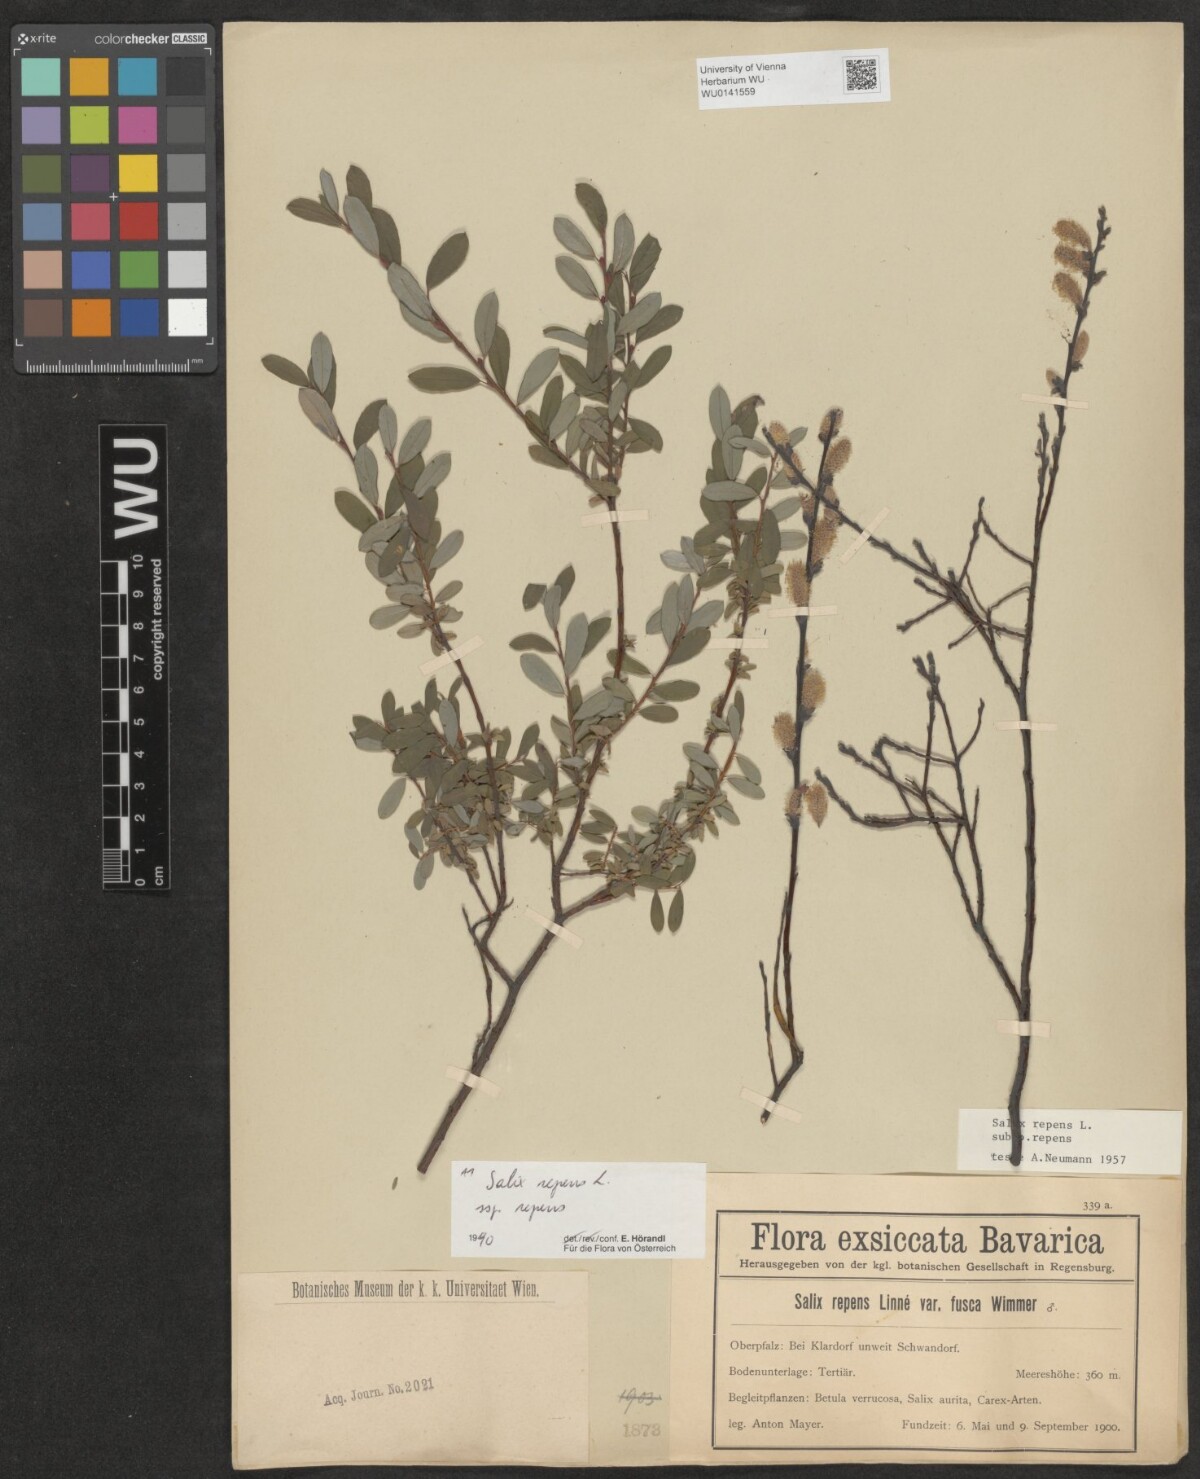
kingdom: Plantae
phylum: Tracheophyta
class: Magnoliopsida
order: Malpighiales
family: Salicaceae
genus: Salix
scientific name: Salix repens
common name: Creeping willow
